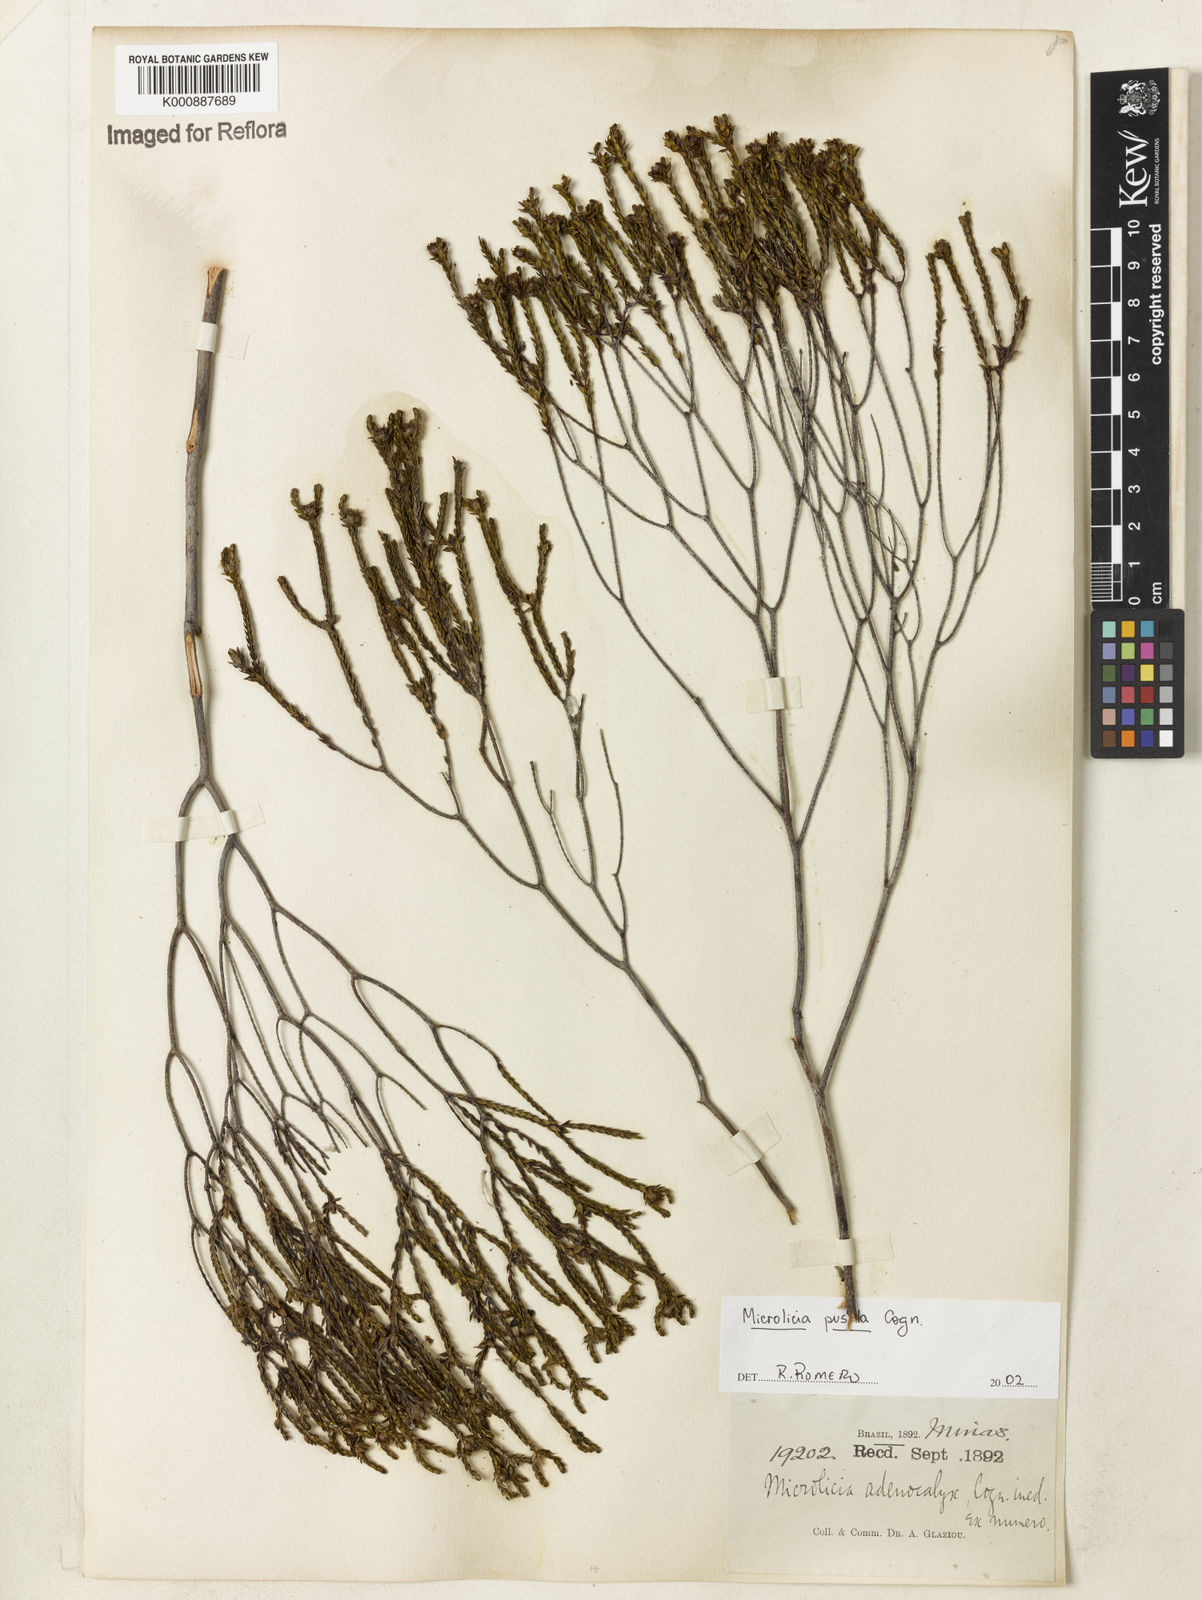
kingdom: Plantae
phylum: Tracheophyta
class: Magnoliopsida
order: Myrtales
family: Melastomataceae
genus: Microlicia
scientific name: Microlicia pusilla
